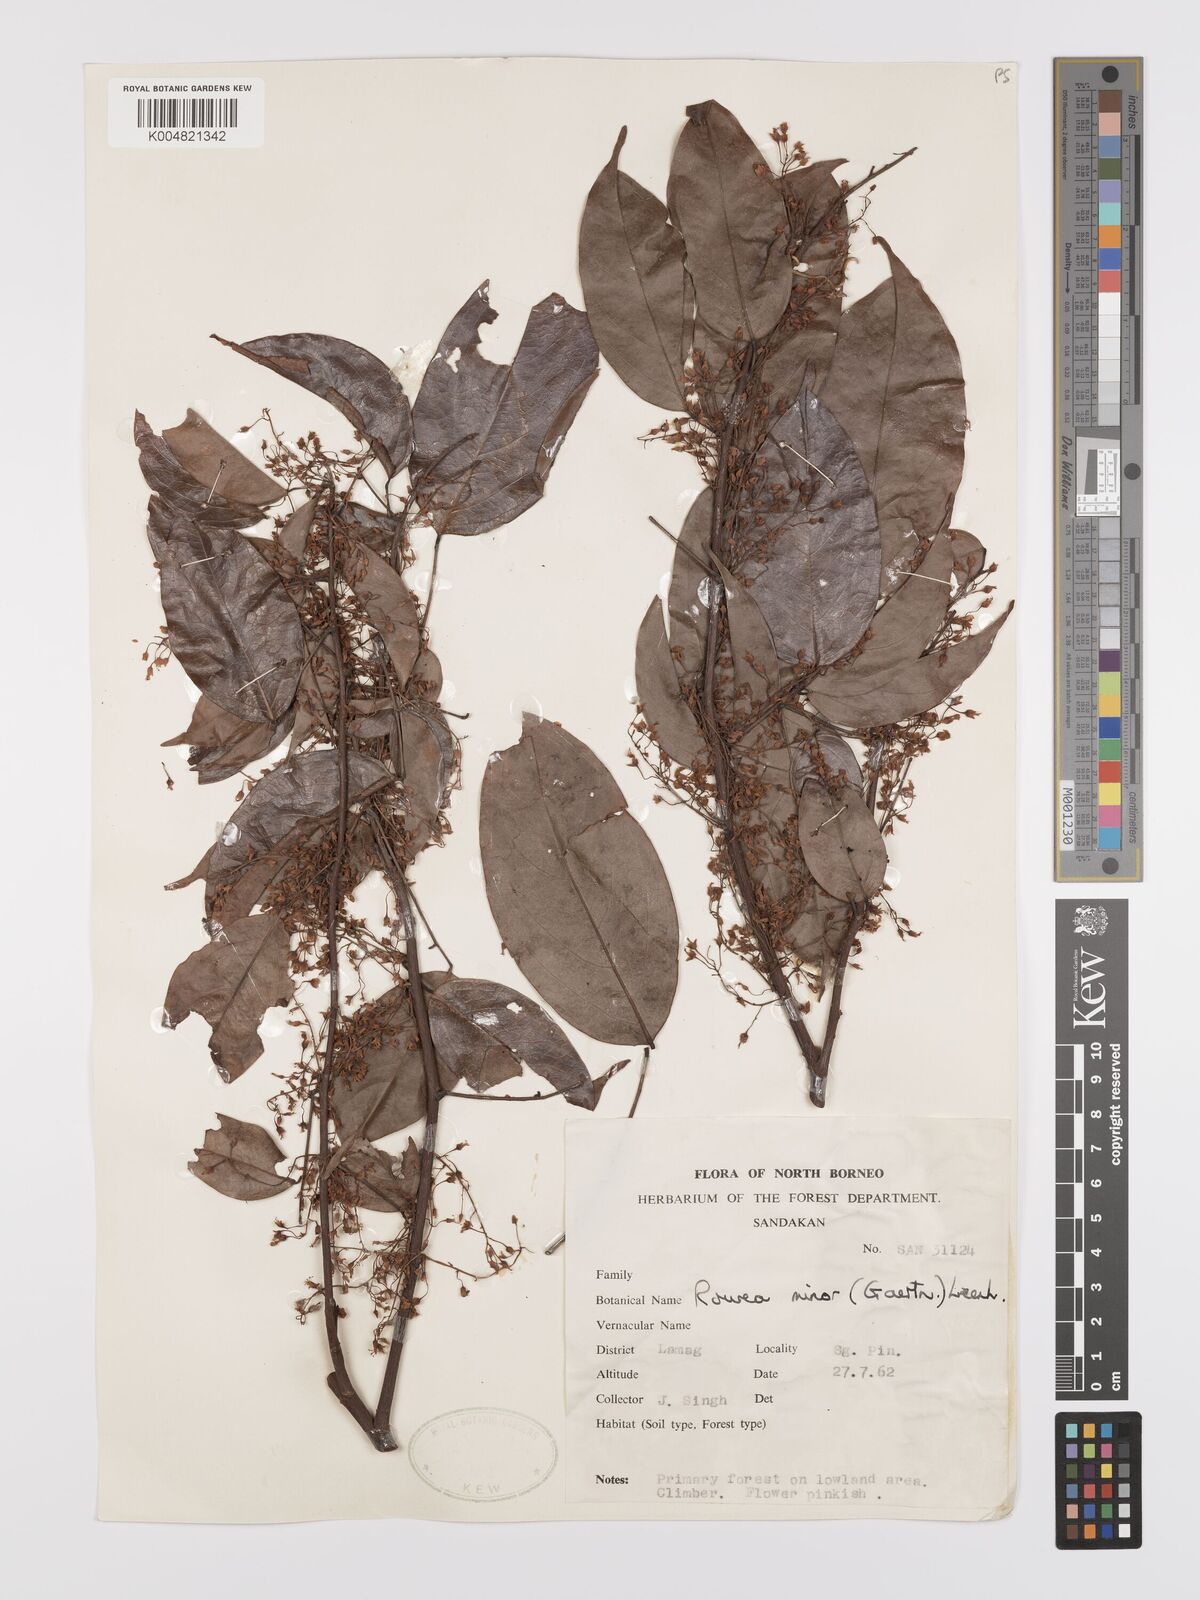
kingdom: Plantae
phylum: Tracheophyta
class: Magnoliopsida
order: Oxalidales
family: Connaraceae
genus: Rourea
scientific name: Rourea minor
